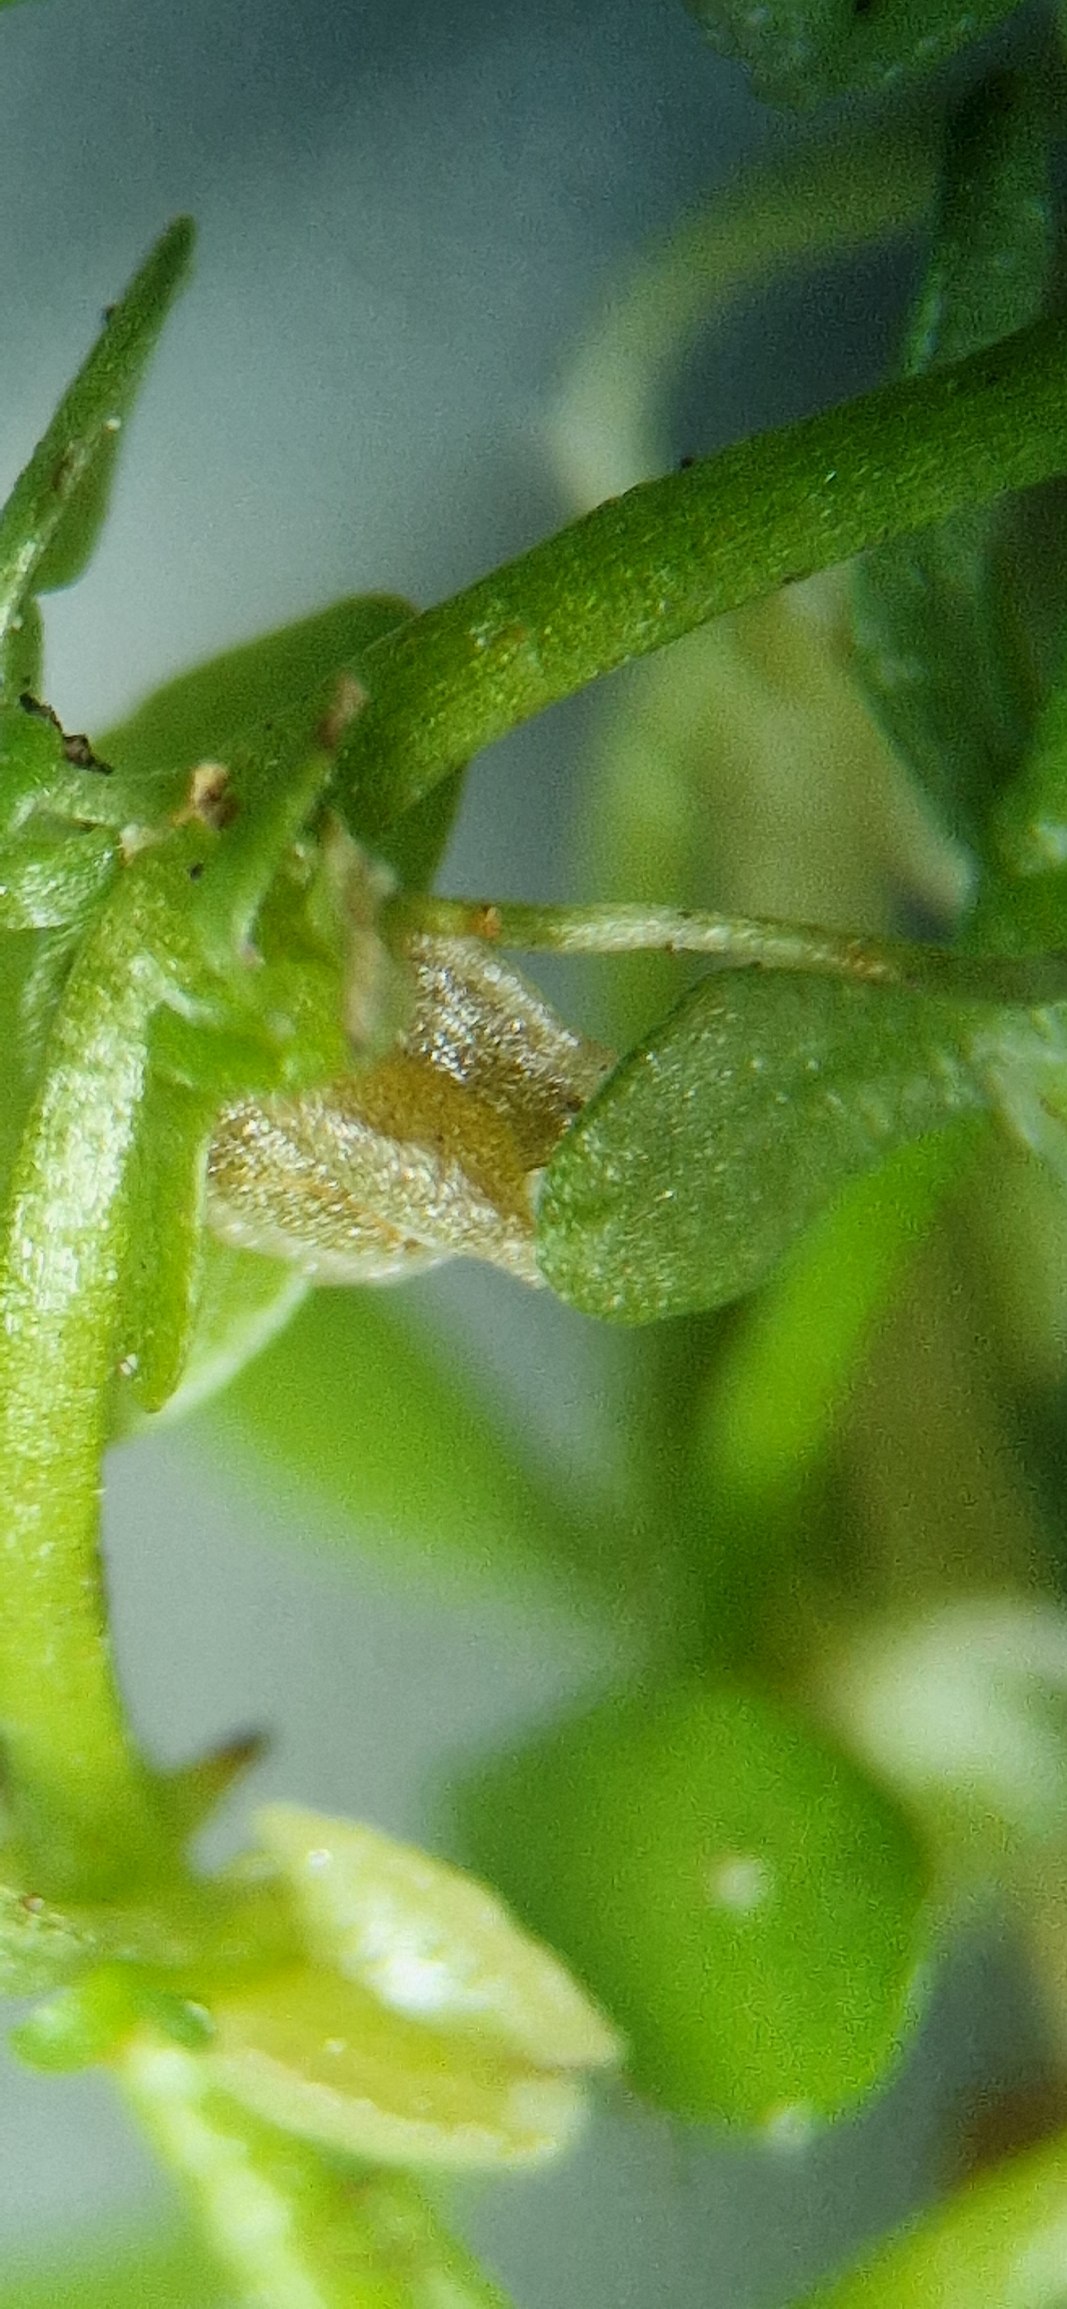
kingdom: Plantae
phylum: Tracheophyta
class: Magnoliopsida
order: Lamiales
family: Plantaginaceae
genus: Callitriche
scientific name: Callitriche stagnalis
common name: Storfrugtet vandstjerne
